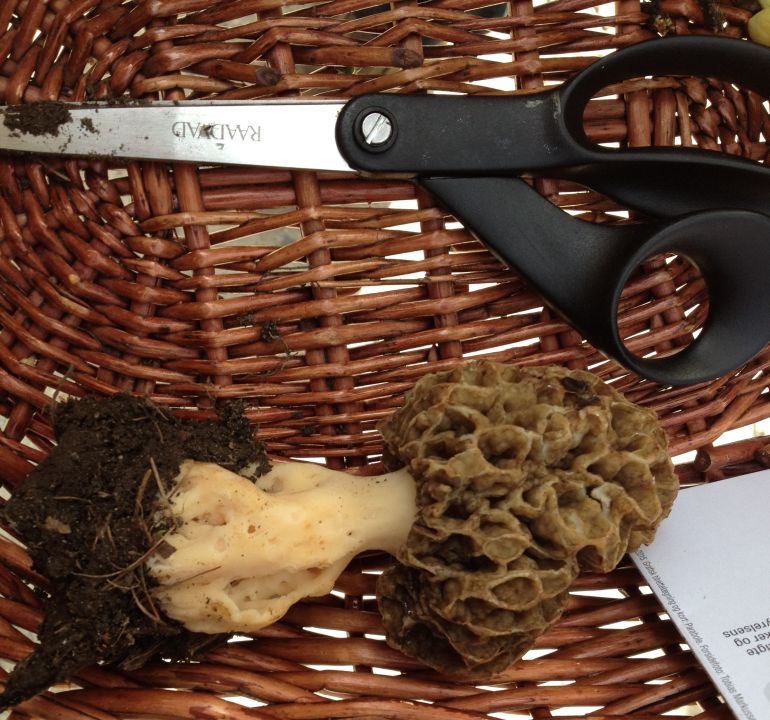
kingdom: Fungi
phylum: Ascomycota
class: Pezizomycetes
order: Pezizales
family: Morchellaceae
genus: Morchella
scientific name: Morchella esculenta
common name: spiselig morkel
